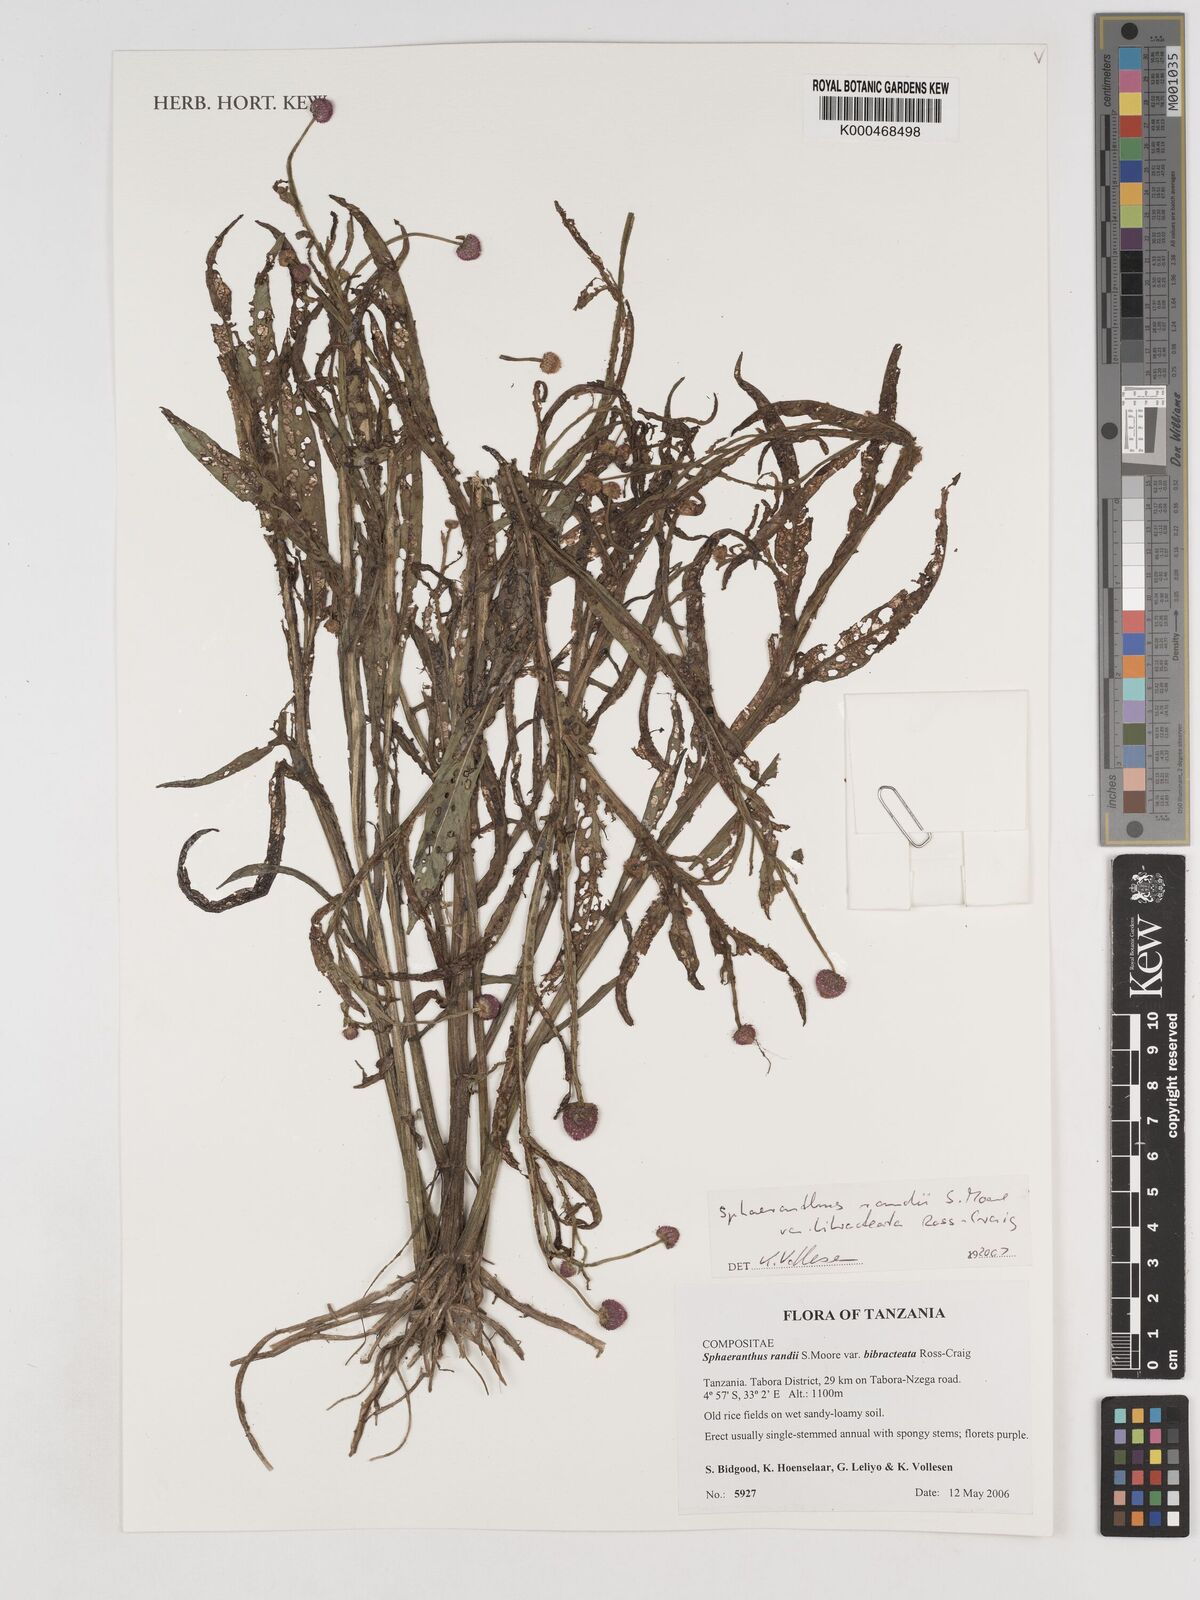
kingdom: Plantae
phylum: Tracheophyta
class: Magnoliopsida
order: Asterales
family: Asteraceae
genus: Sphaeranthus
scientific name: Sphaeranthus randii
